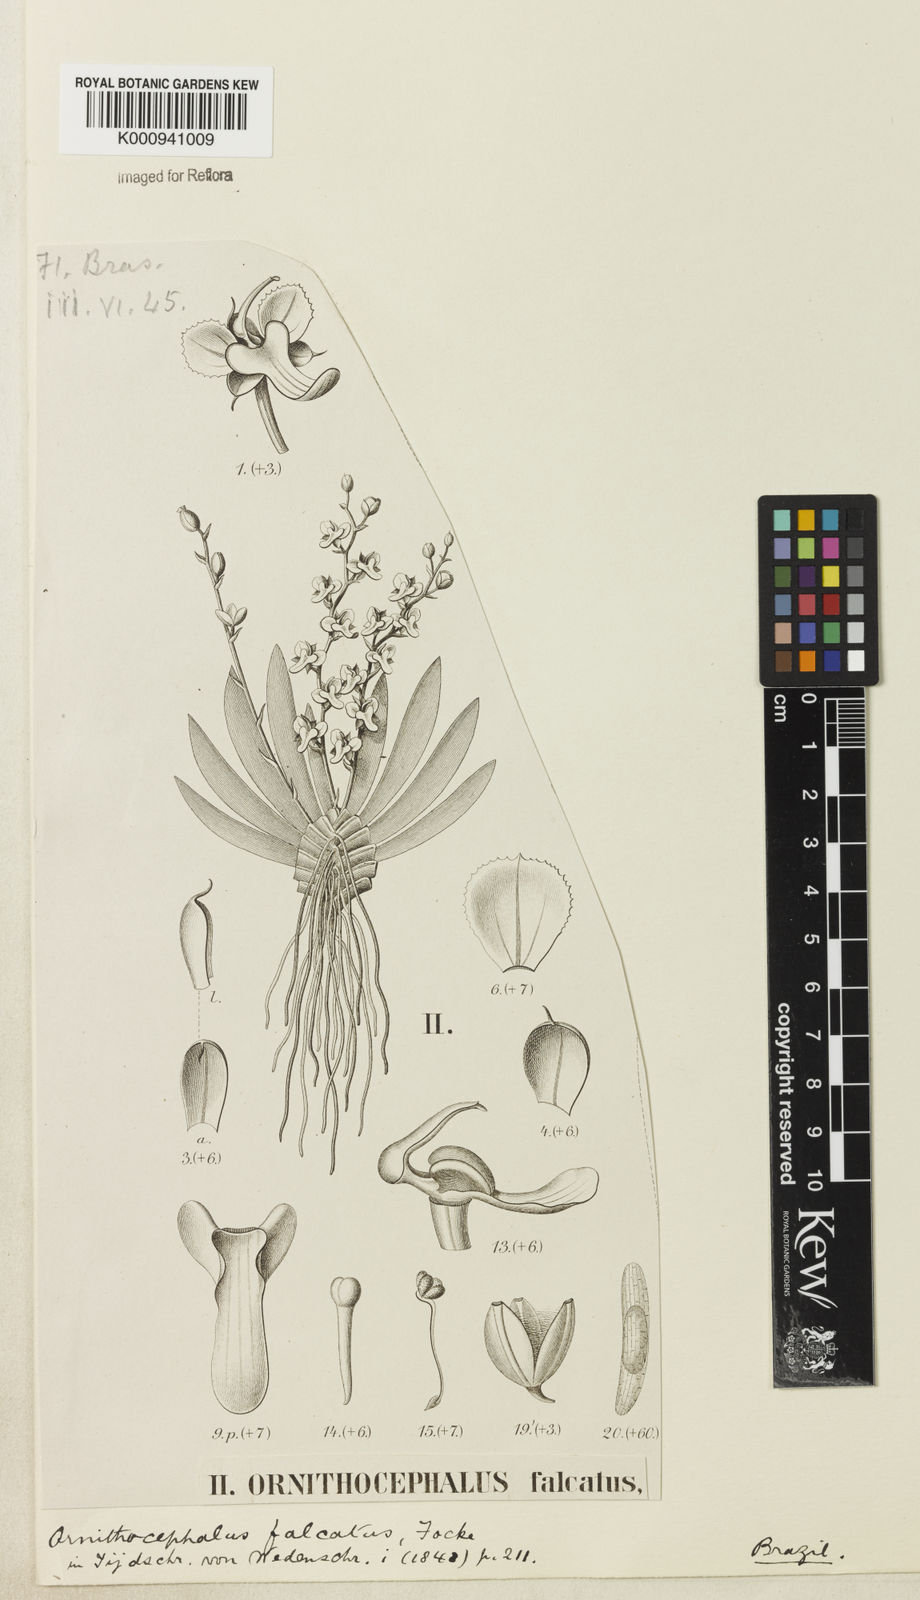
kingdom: Plantae
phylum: Tracheophyta
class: Liliopsida
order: Asparagales
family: Orchidaceae
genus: Ornithocephalus
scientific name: Ornithocephalus falcatus
